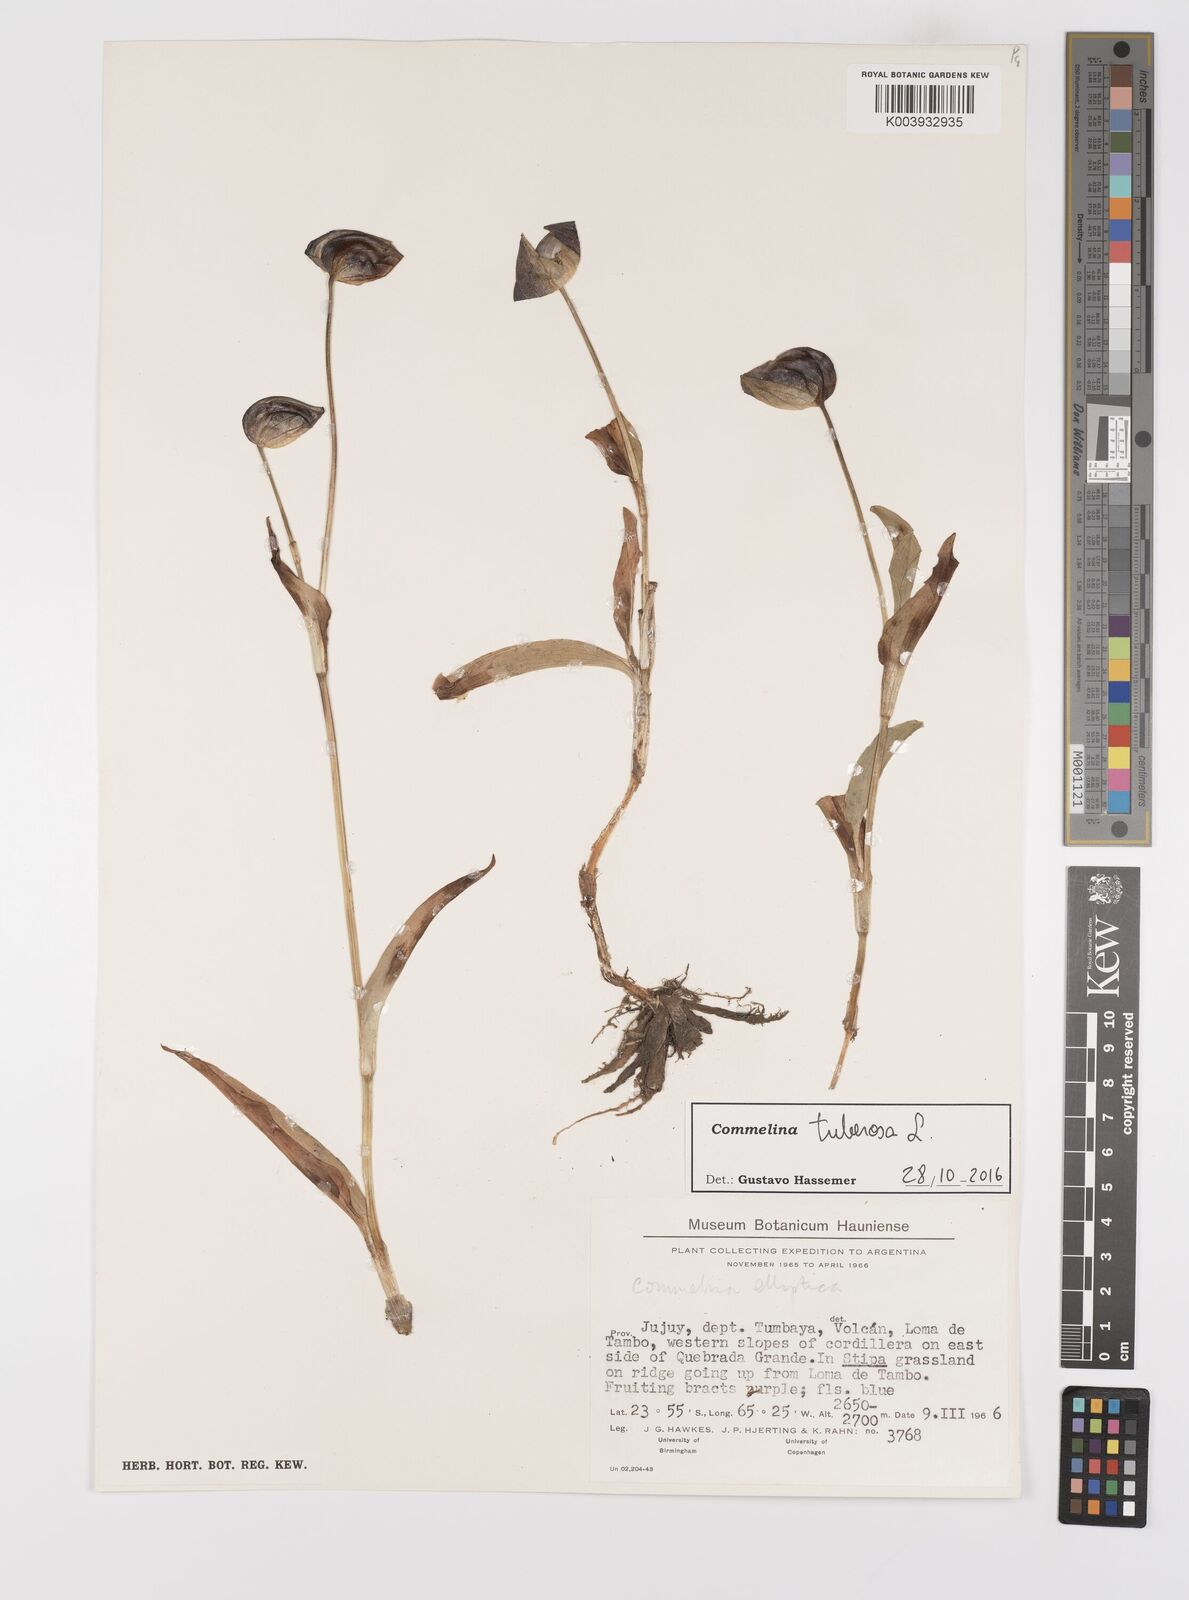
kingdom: Plantae
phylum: Tracheophyta
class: Liliopsida
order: Commelinales
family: Commelinaceae
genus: Commelina
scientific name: Commelina tuberosa
